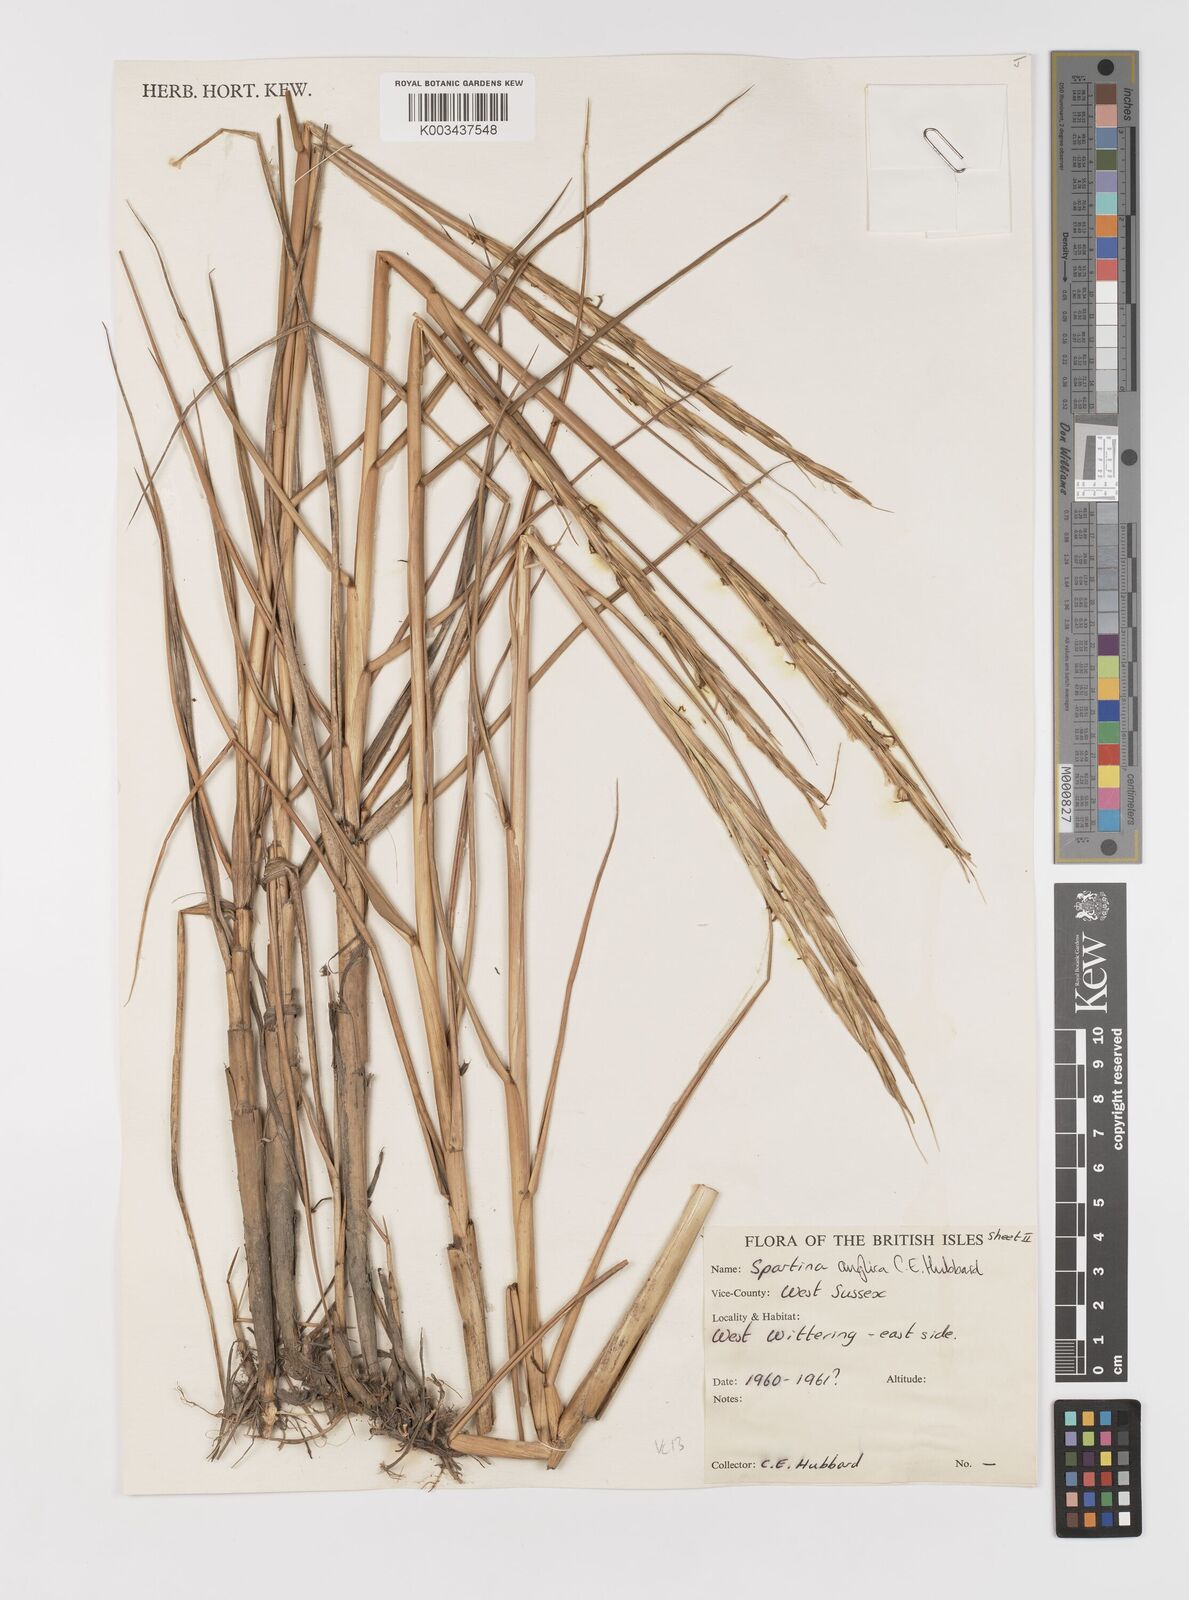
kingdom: Plantae
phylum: Tracheophyta
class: Liliopsida
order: Poales
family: Poaceae
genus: Sporobolus
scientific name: Sporobolus anglicus
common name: English cordgrass
